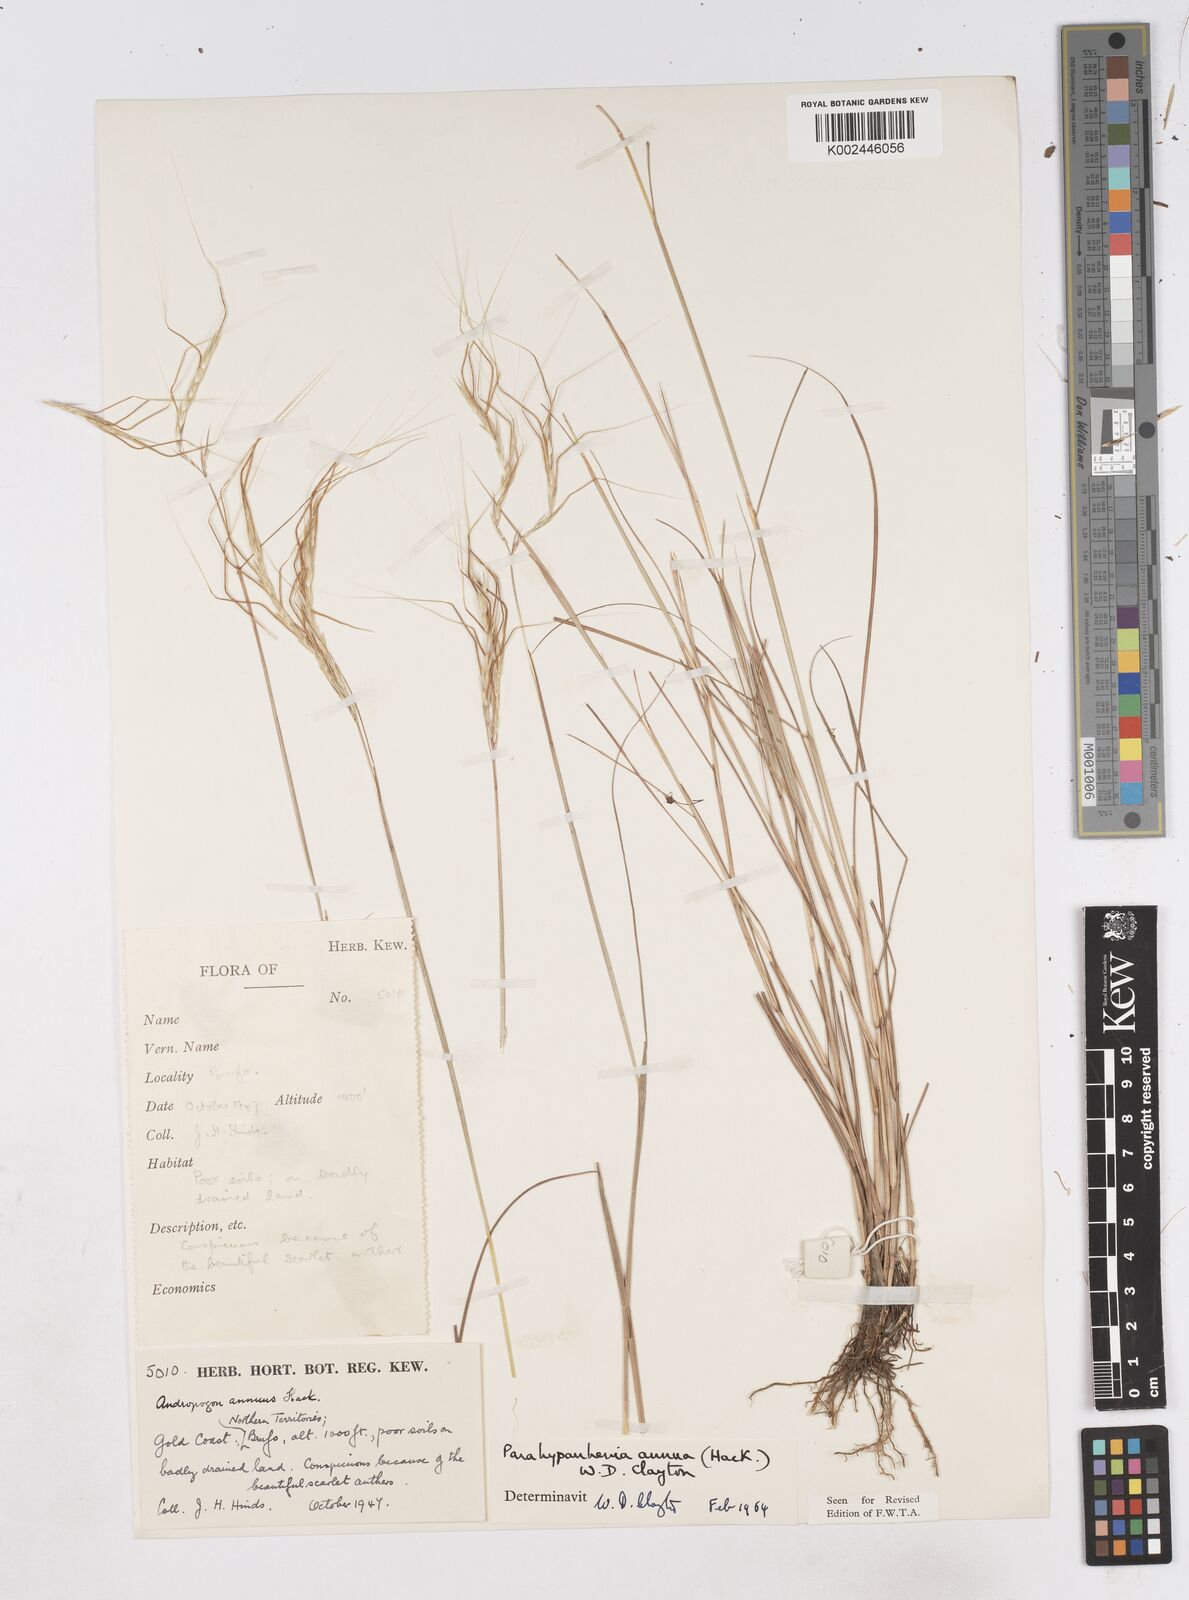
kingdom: Plantae
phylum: Tracheophyta
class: Liliopsida
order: Poales
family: Poaceae
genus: Parahyparrhenia
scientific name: Parahyparrhenia annua
